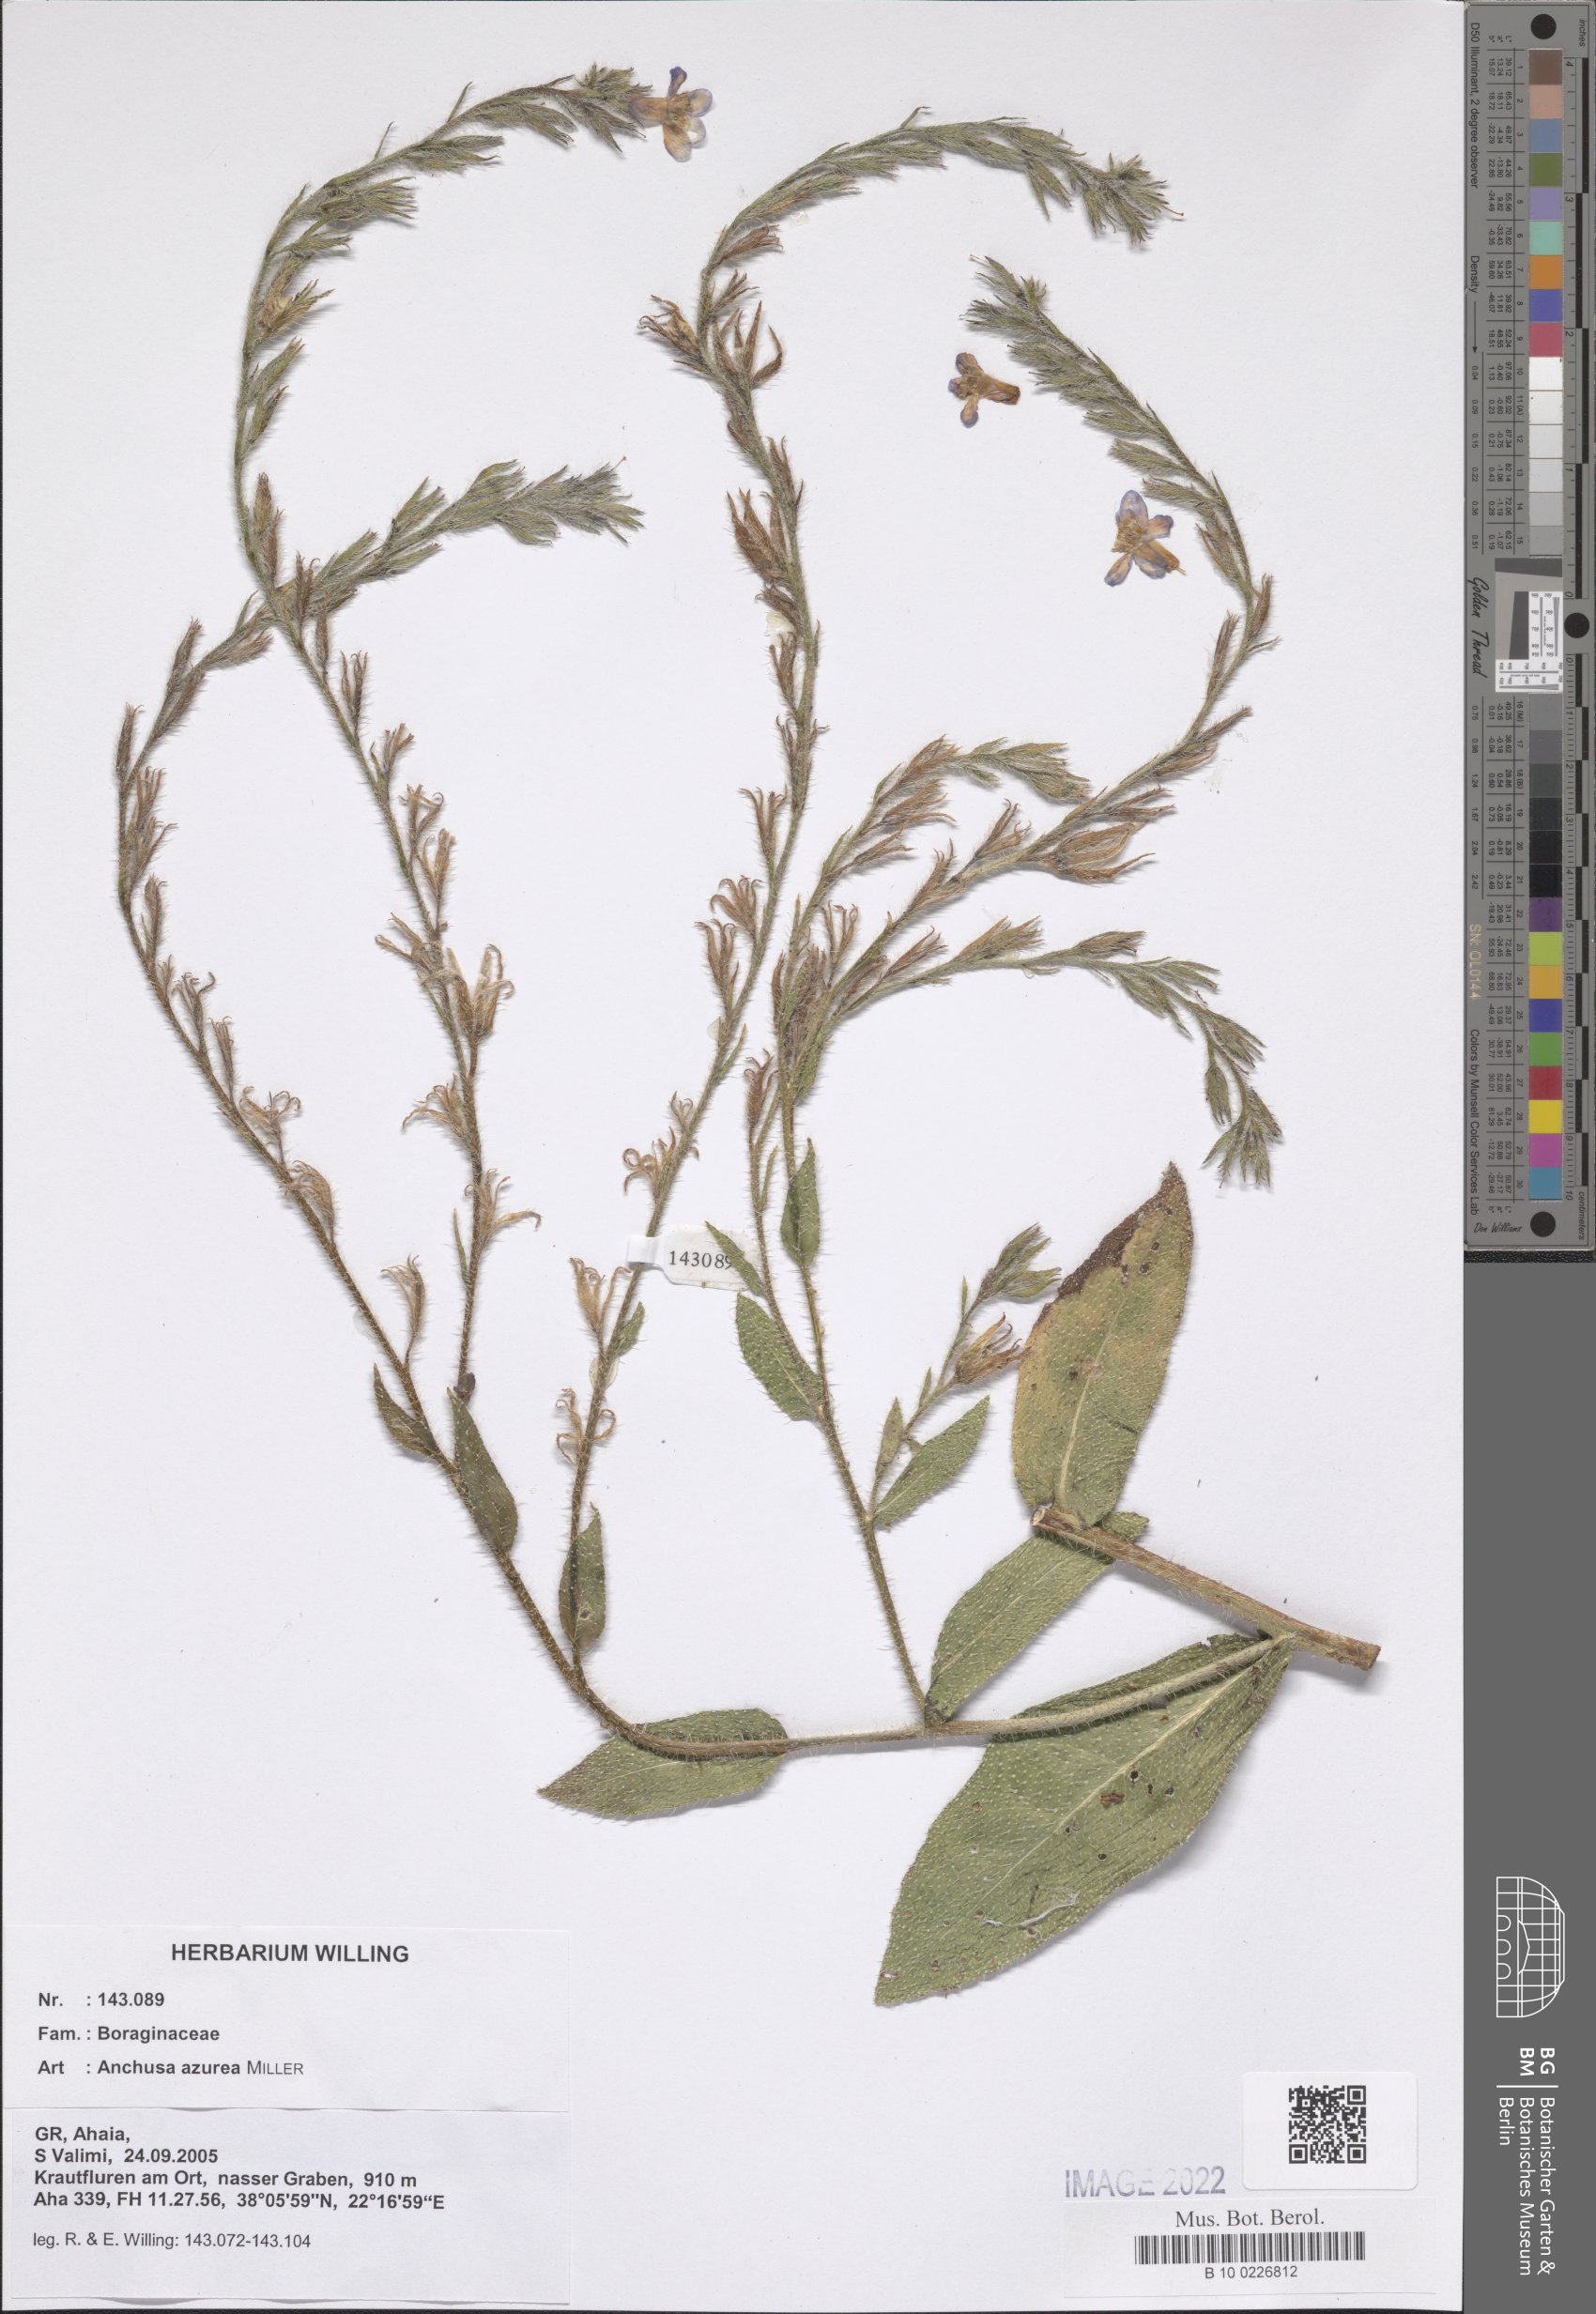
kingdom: Plantae
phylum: Tracheophyta
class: Magnoliopsida
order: Boraginales
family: Boraginaceae
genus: Anchusa
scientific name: Anchusa azurea
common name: Garden anchusa
